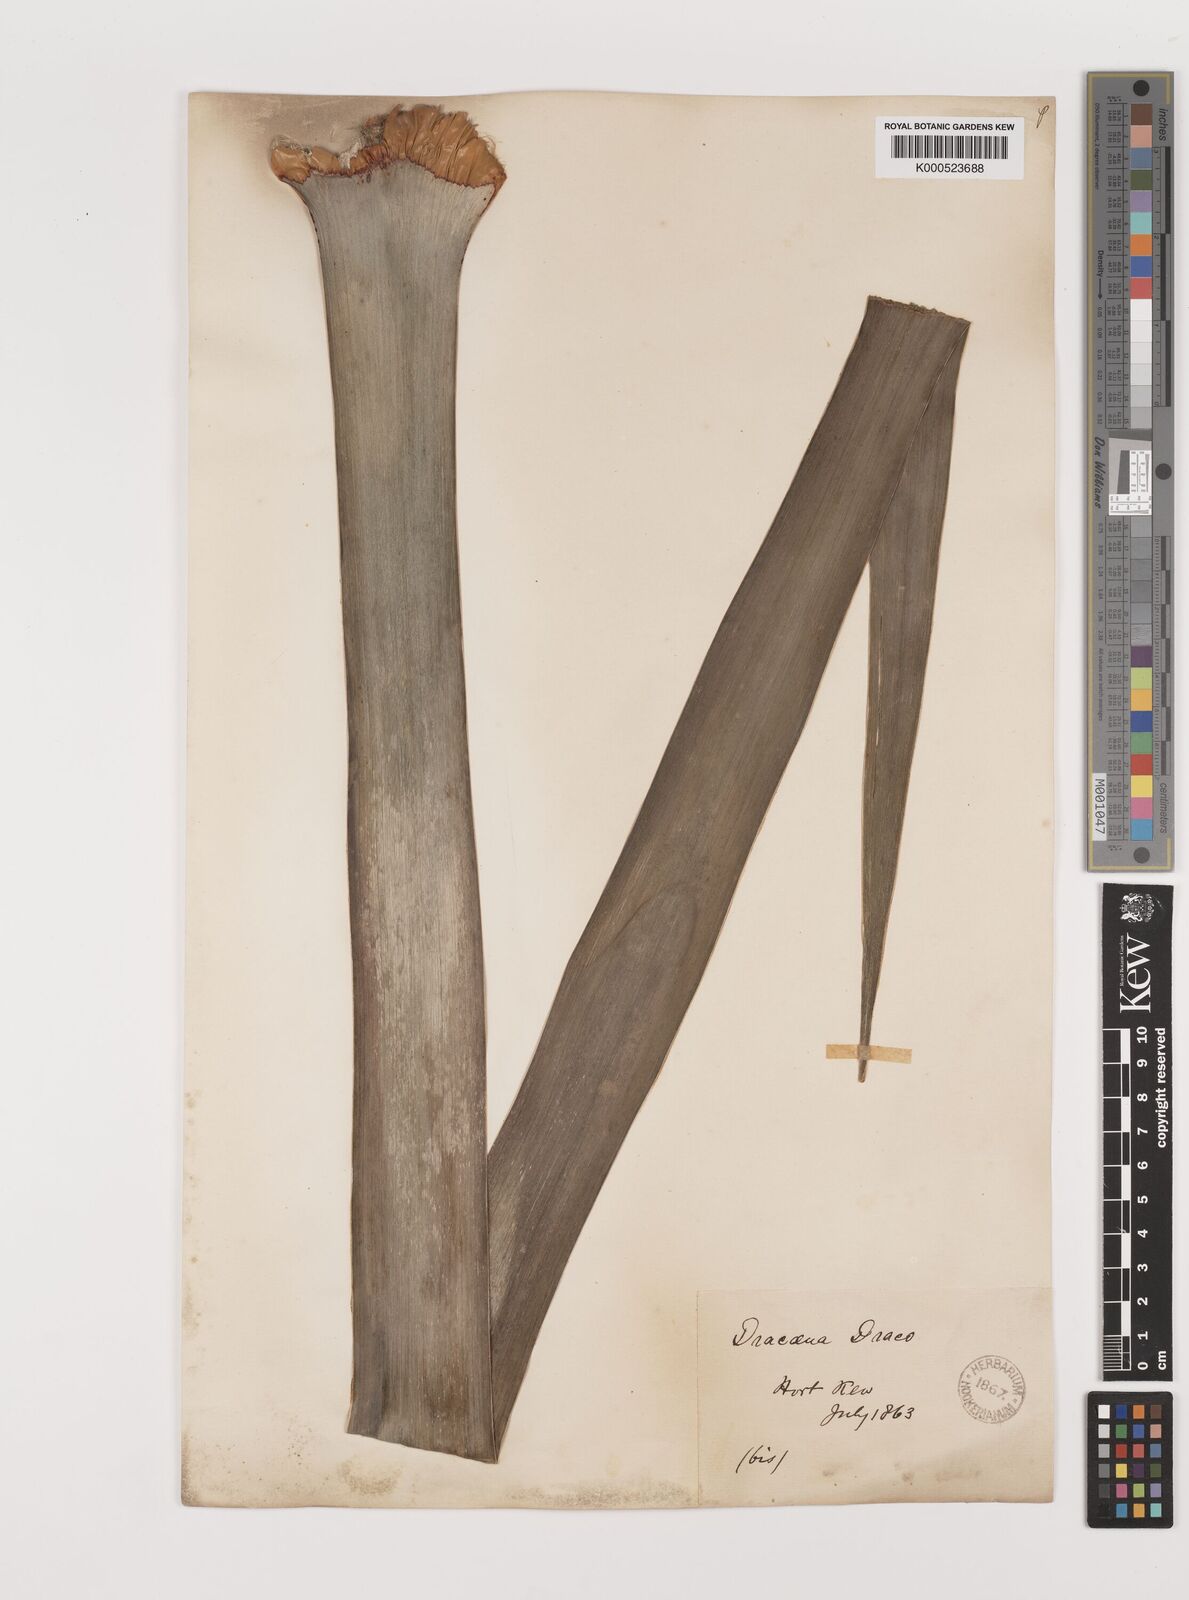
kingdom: Plantae
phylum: Tracheophyta
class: Liliopsida
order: Asparagales
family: Asparagaceae
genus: Dracaena
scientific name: Dracaena draco
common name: Canary island dragon tree
